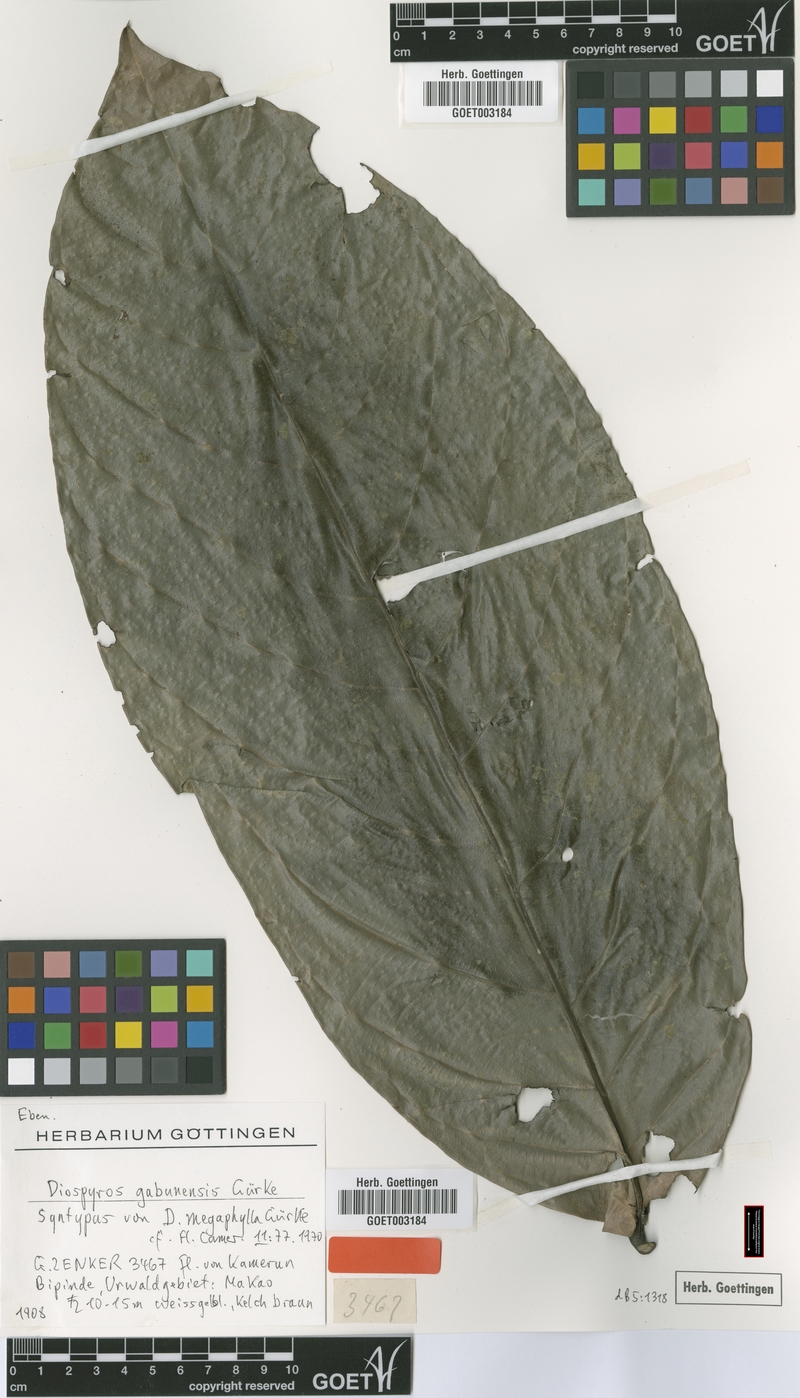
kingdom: Plantae
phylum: Tracheophyta
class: Magnoliopsida
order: Ericales
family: Ebenaceae
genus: Diospyros
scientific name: Diospyros gabunensis
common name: Flint bark tree
